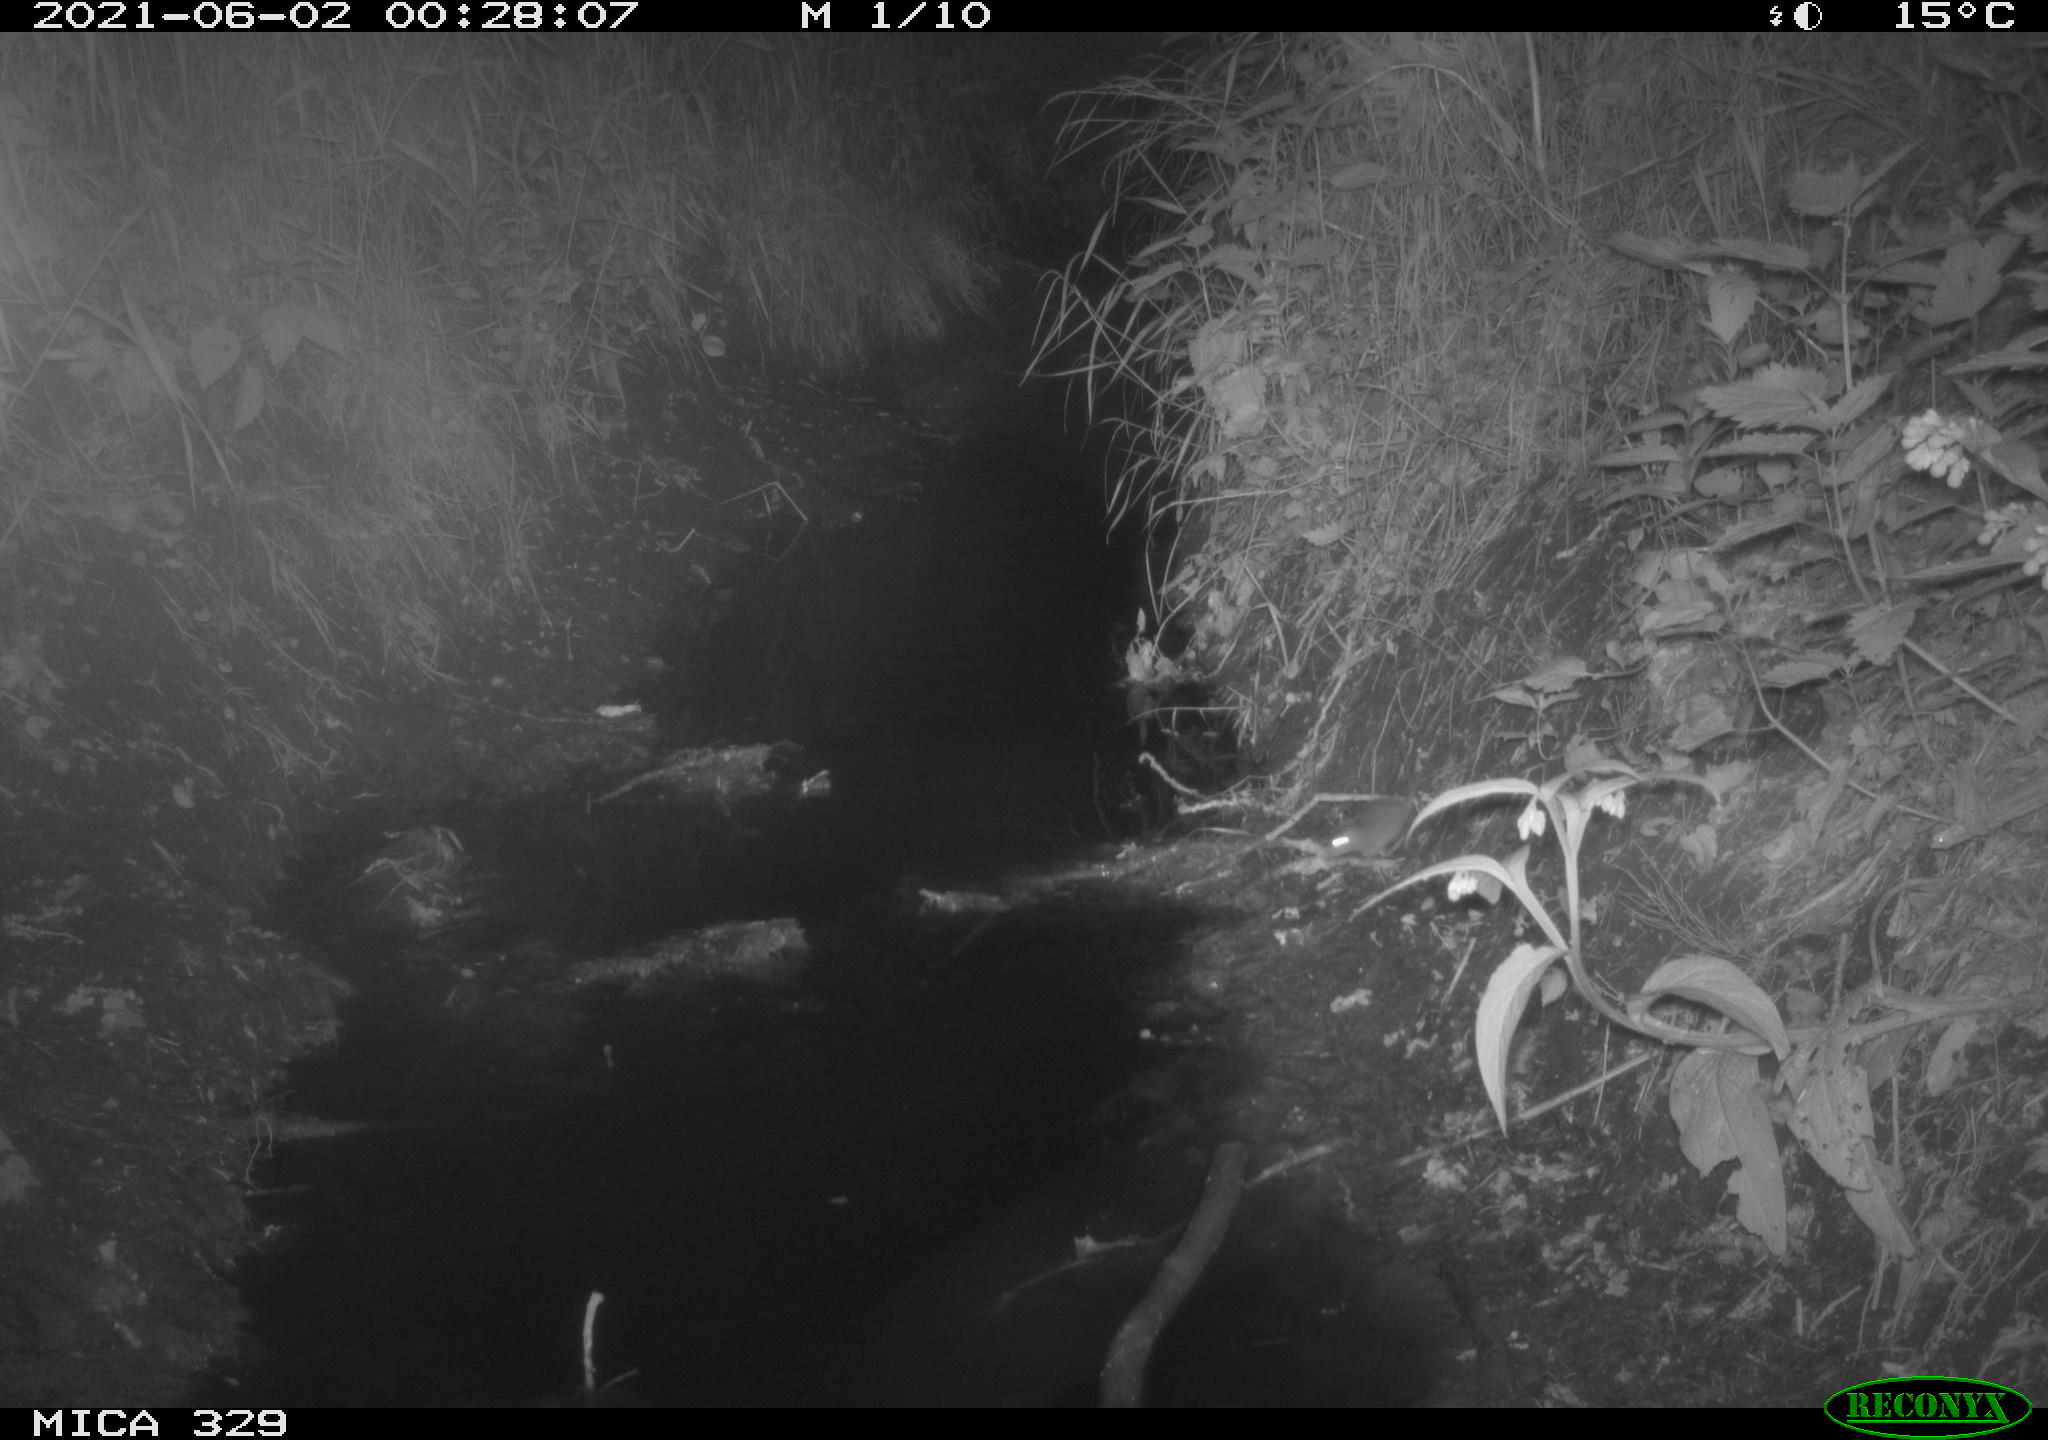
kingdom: Animalia
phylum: Chordata
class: Mammalia
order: Rodentia
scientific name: Rodentia
